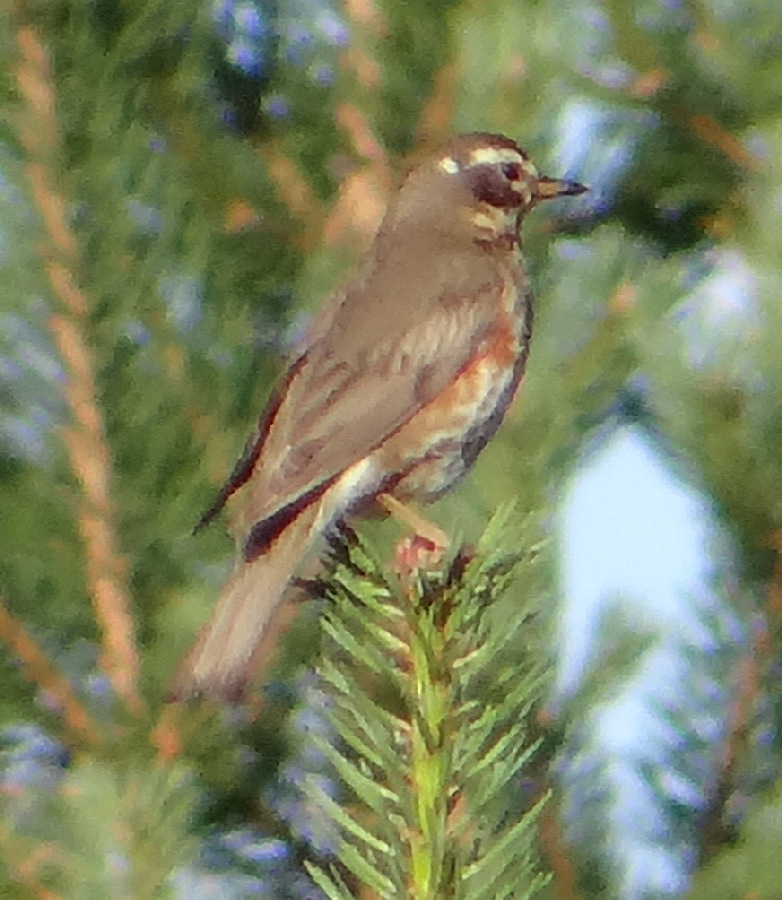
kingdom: Animalia
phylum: Chordata
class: Aves
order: Passeriformes
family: Turdidae
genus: Turdus
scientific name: Turdus iliacus
